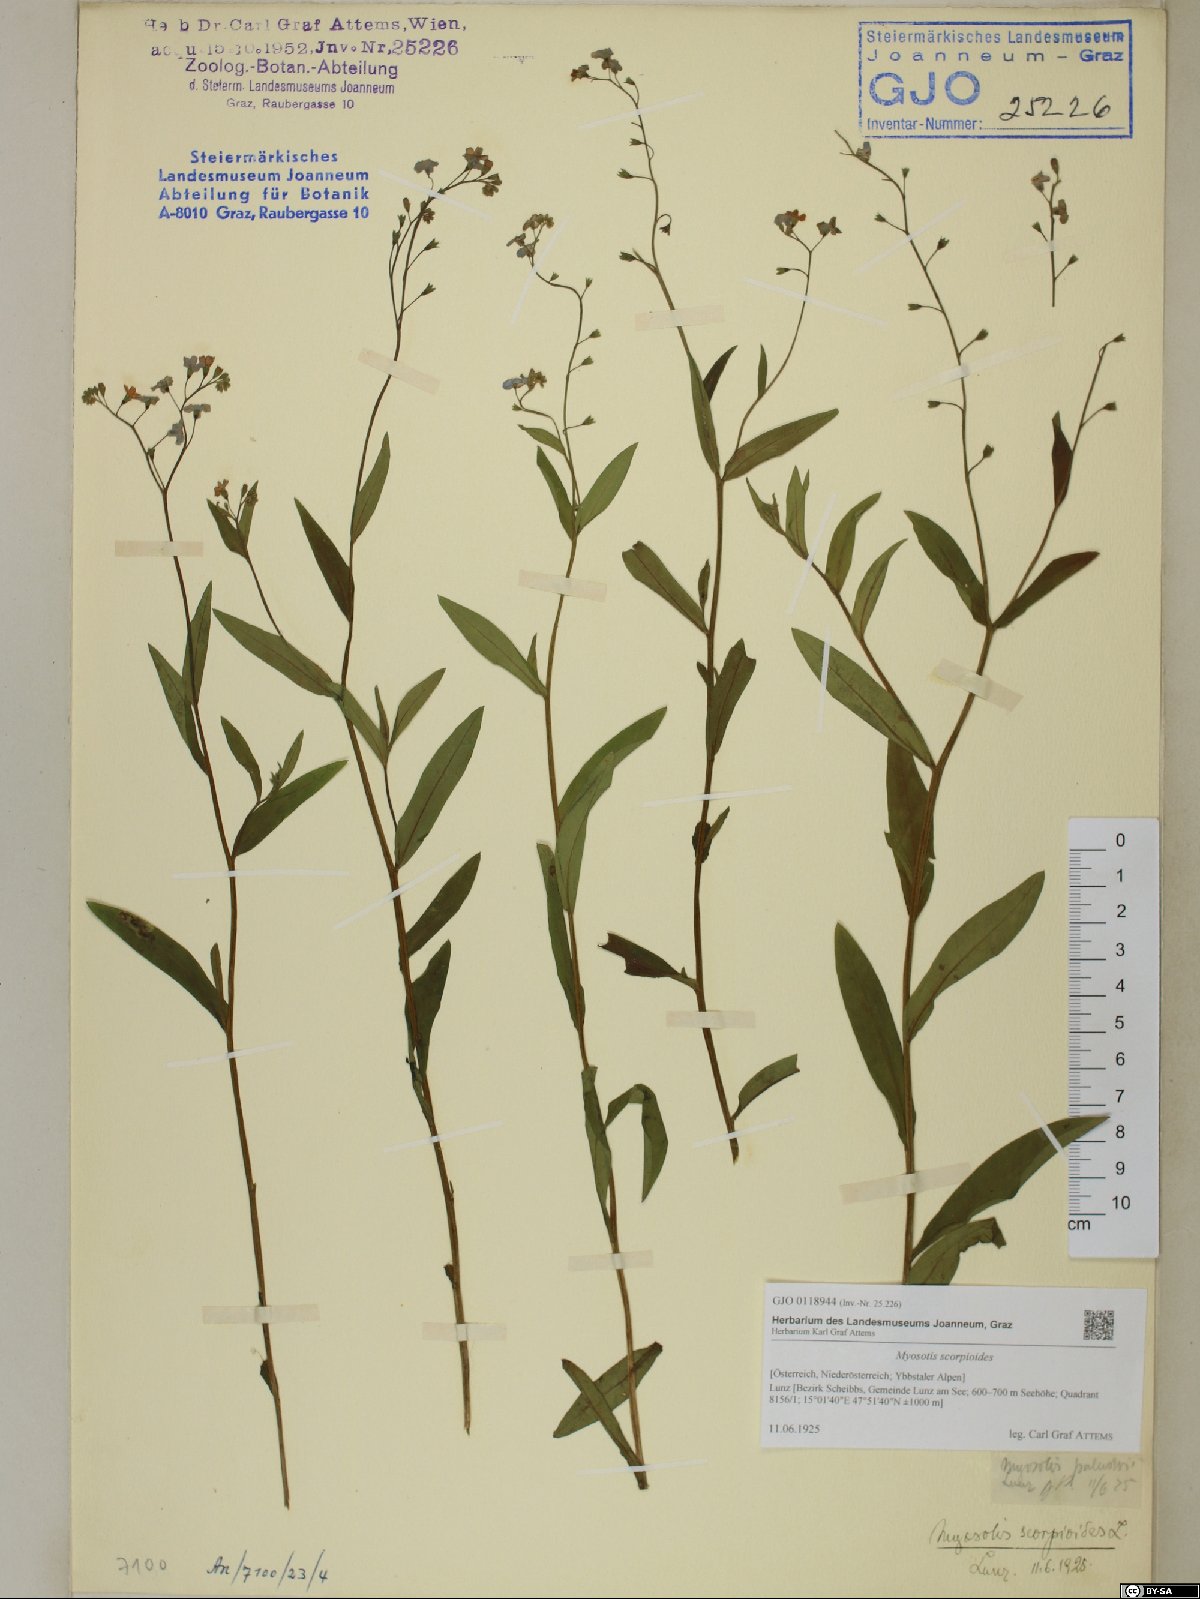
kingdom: Plantae
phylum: Tracheophyta
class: Magnoliopsida
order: Boraginales
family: Boraginaceae
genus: Myosotis
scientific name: Myosotis scorpioides
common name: Water forget-me-not
